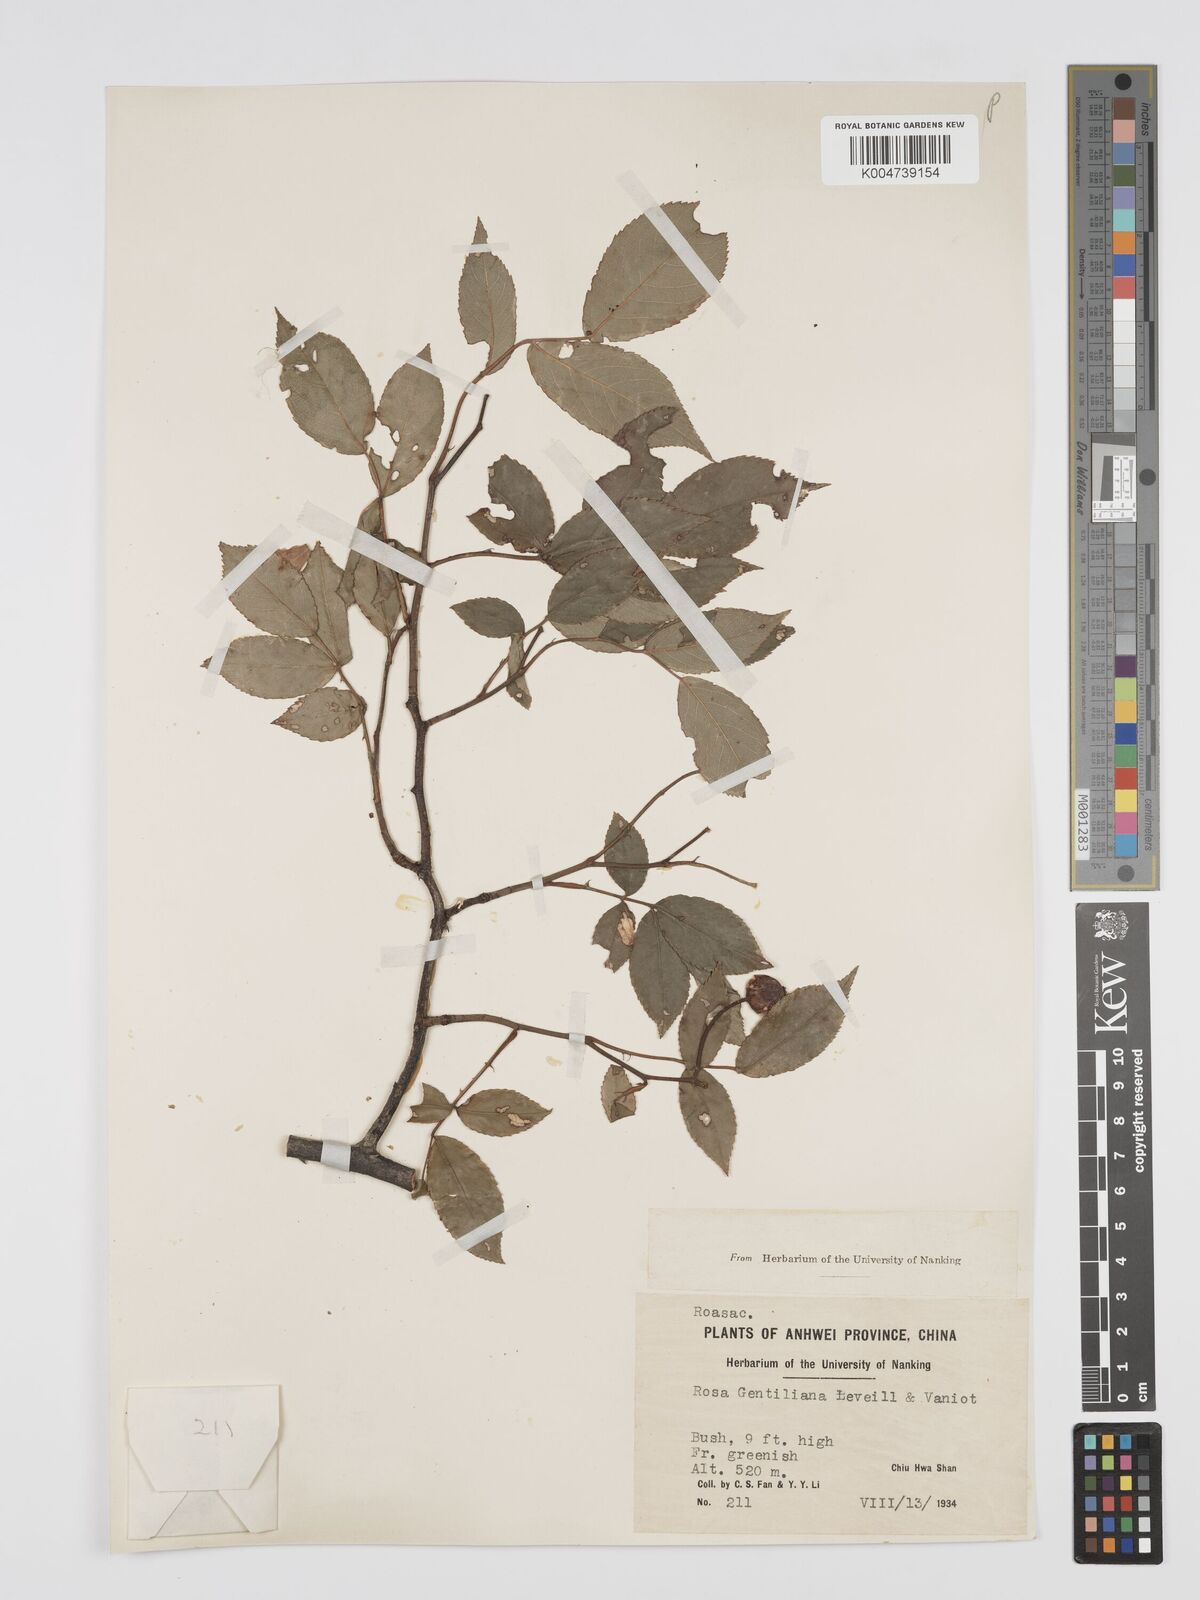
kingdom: Plantae
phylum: Tracheophyta
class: Magnoliopsida
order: Rosales
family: Rosaceae
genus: Rosa
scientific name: Rosa henryi
